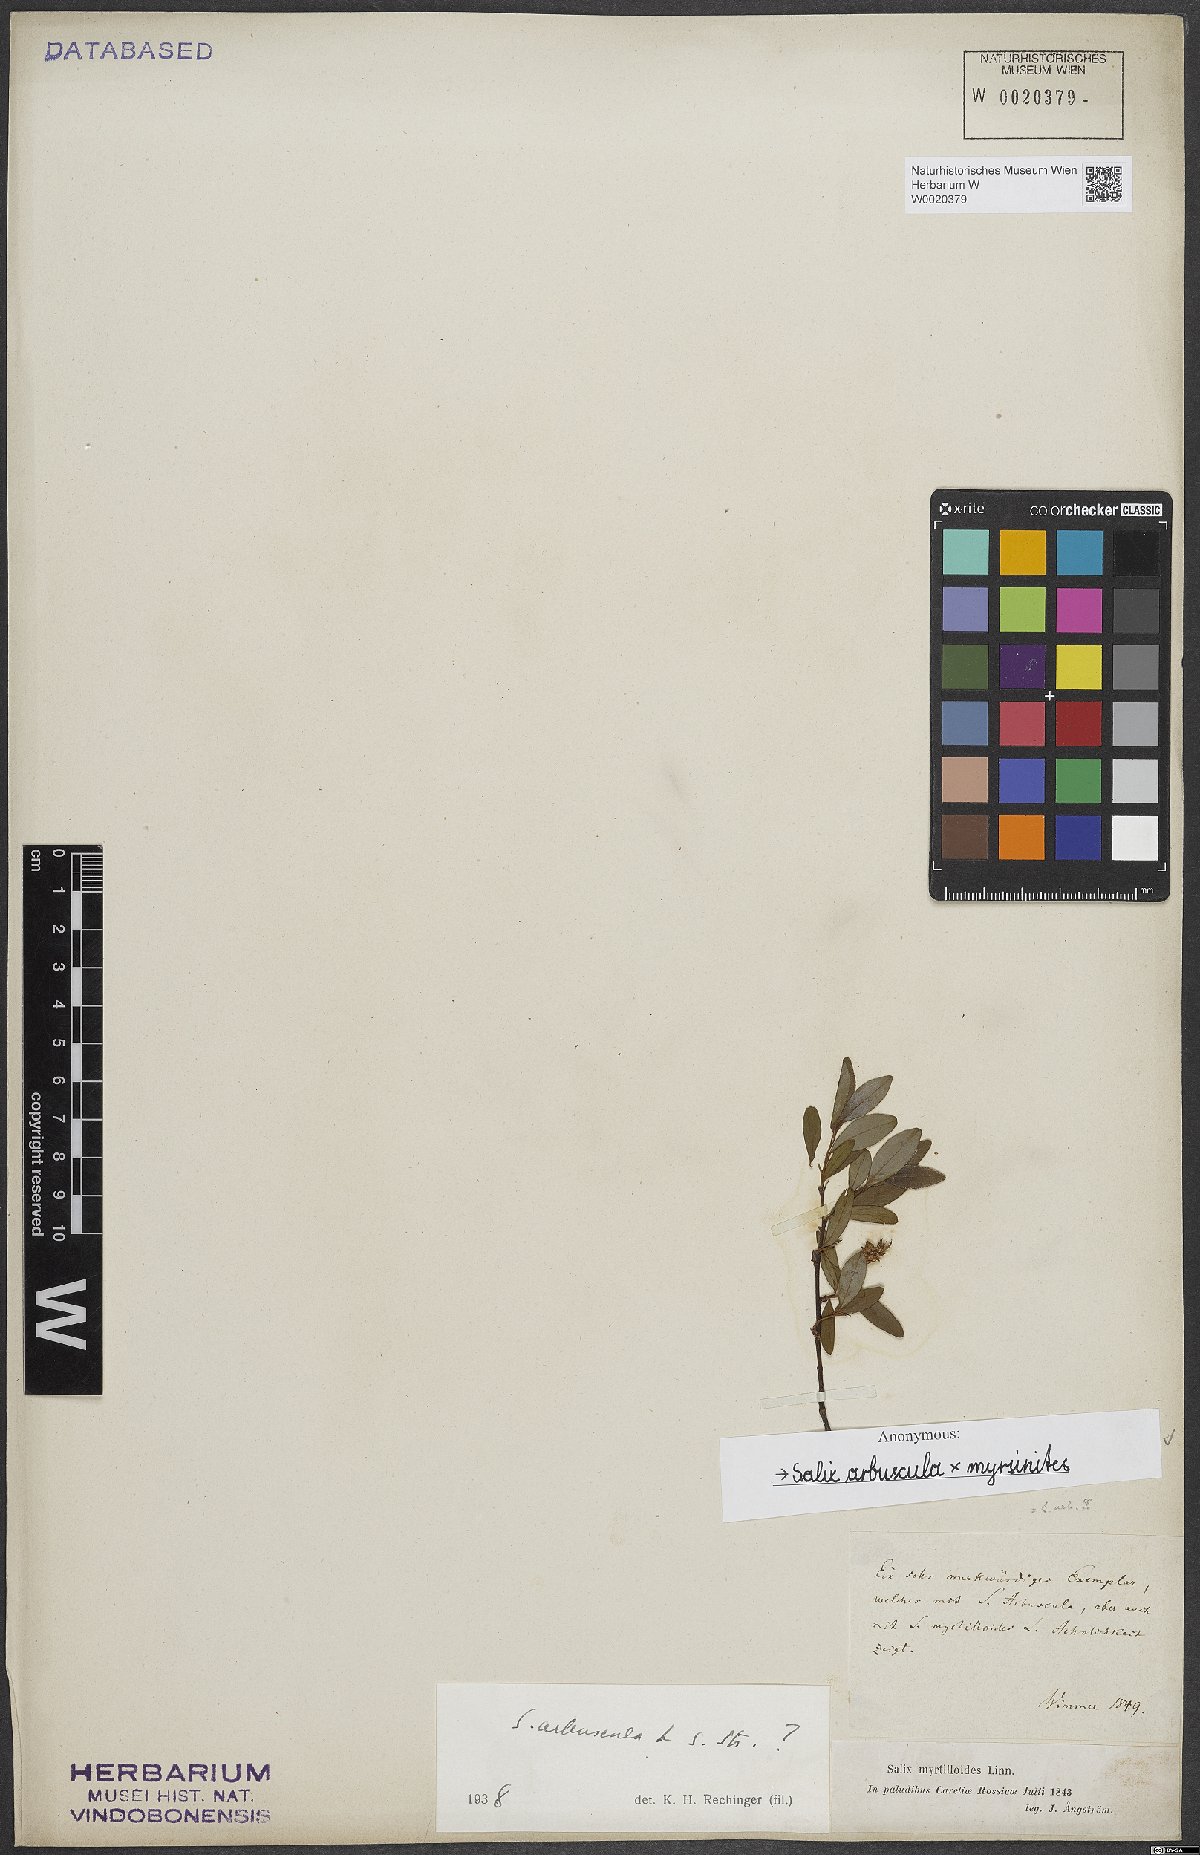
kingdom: Plantae
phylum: Tracheophyta
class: Magnoliopsida
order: Malpighiales
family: Salicaceae
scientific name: Salicaceae
